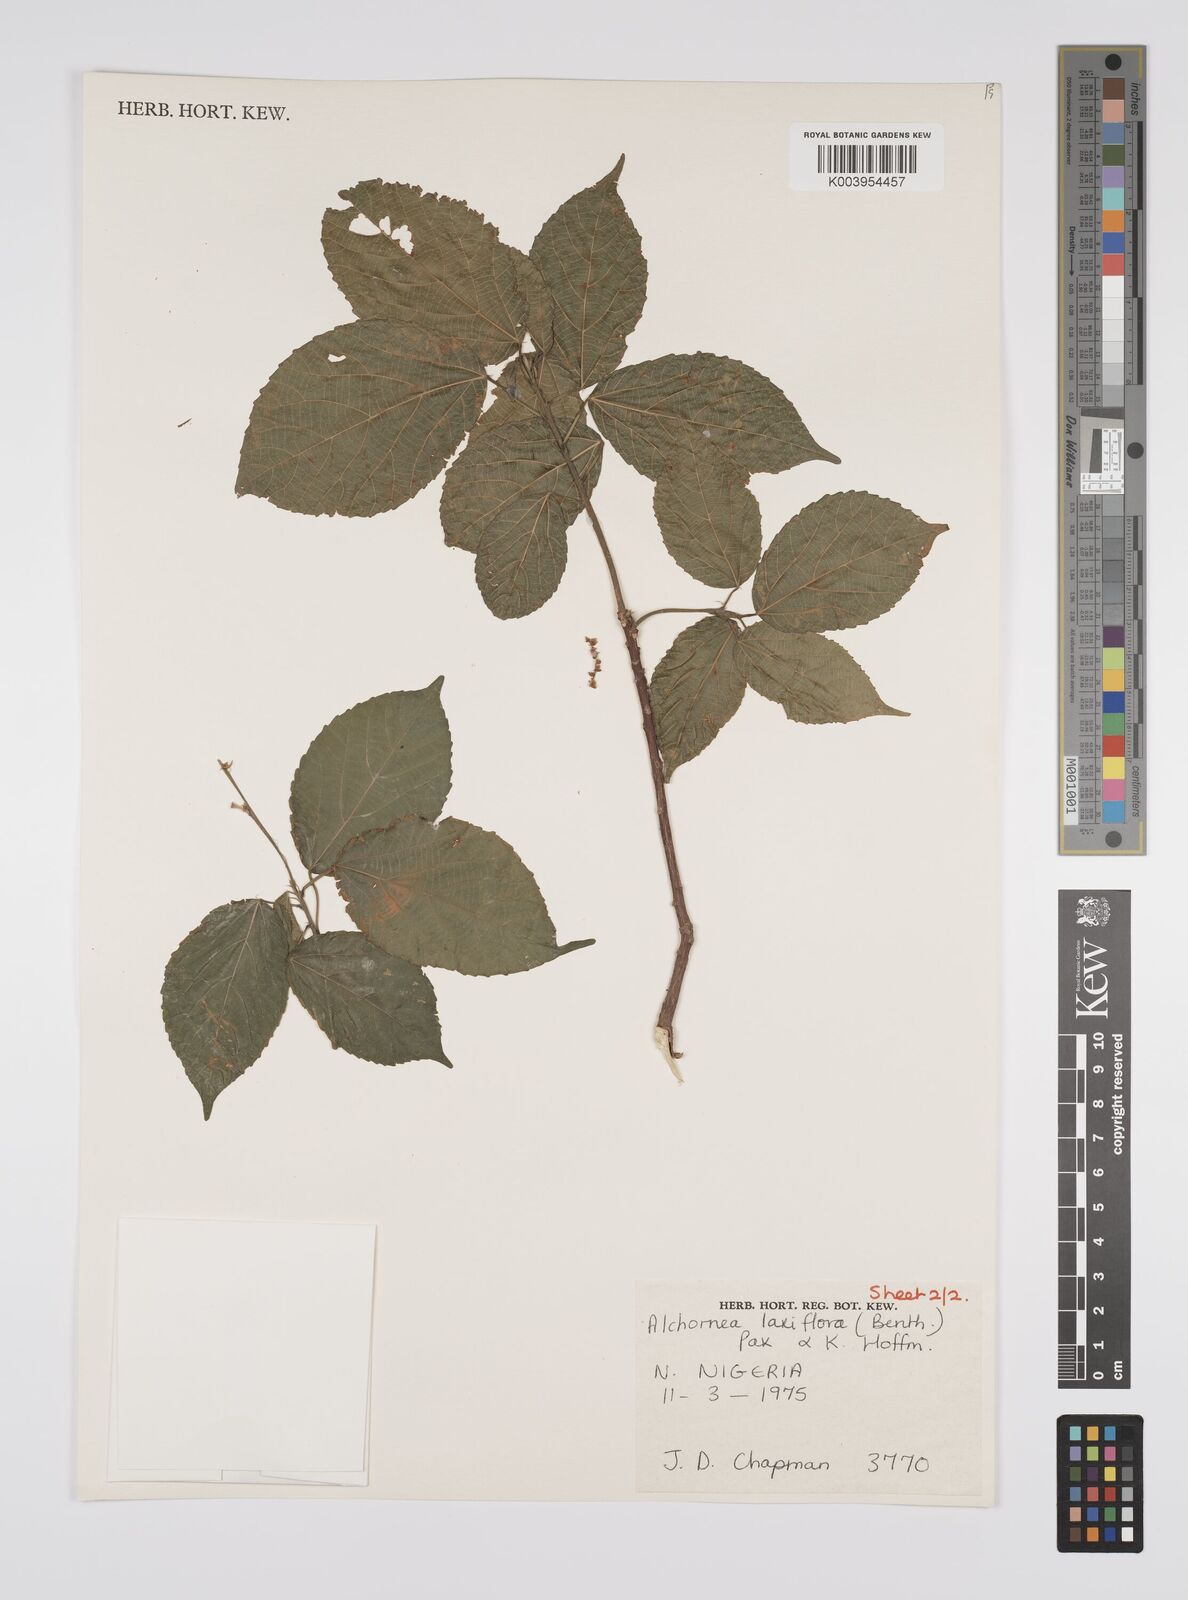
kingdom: Plantae
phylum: Tracheophyta
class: Magnoliopsida
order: Malpighiales
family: Euphorbiaceae
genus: Alchornea
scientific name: Alchornea laxiflora
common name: Lowveld bead-string
